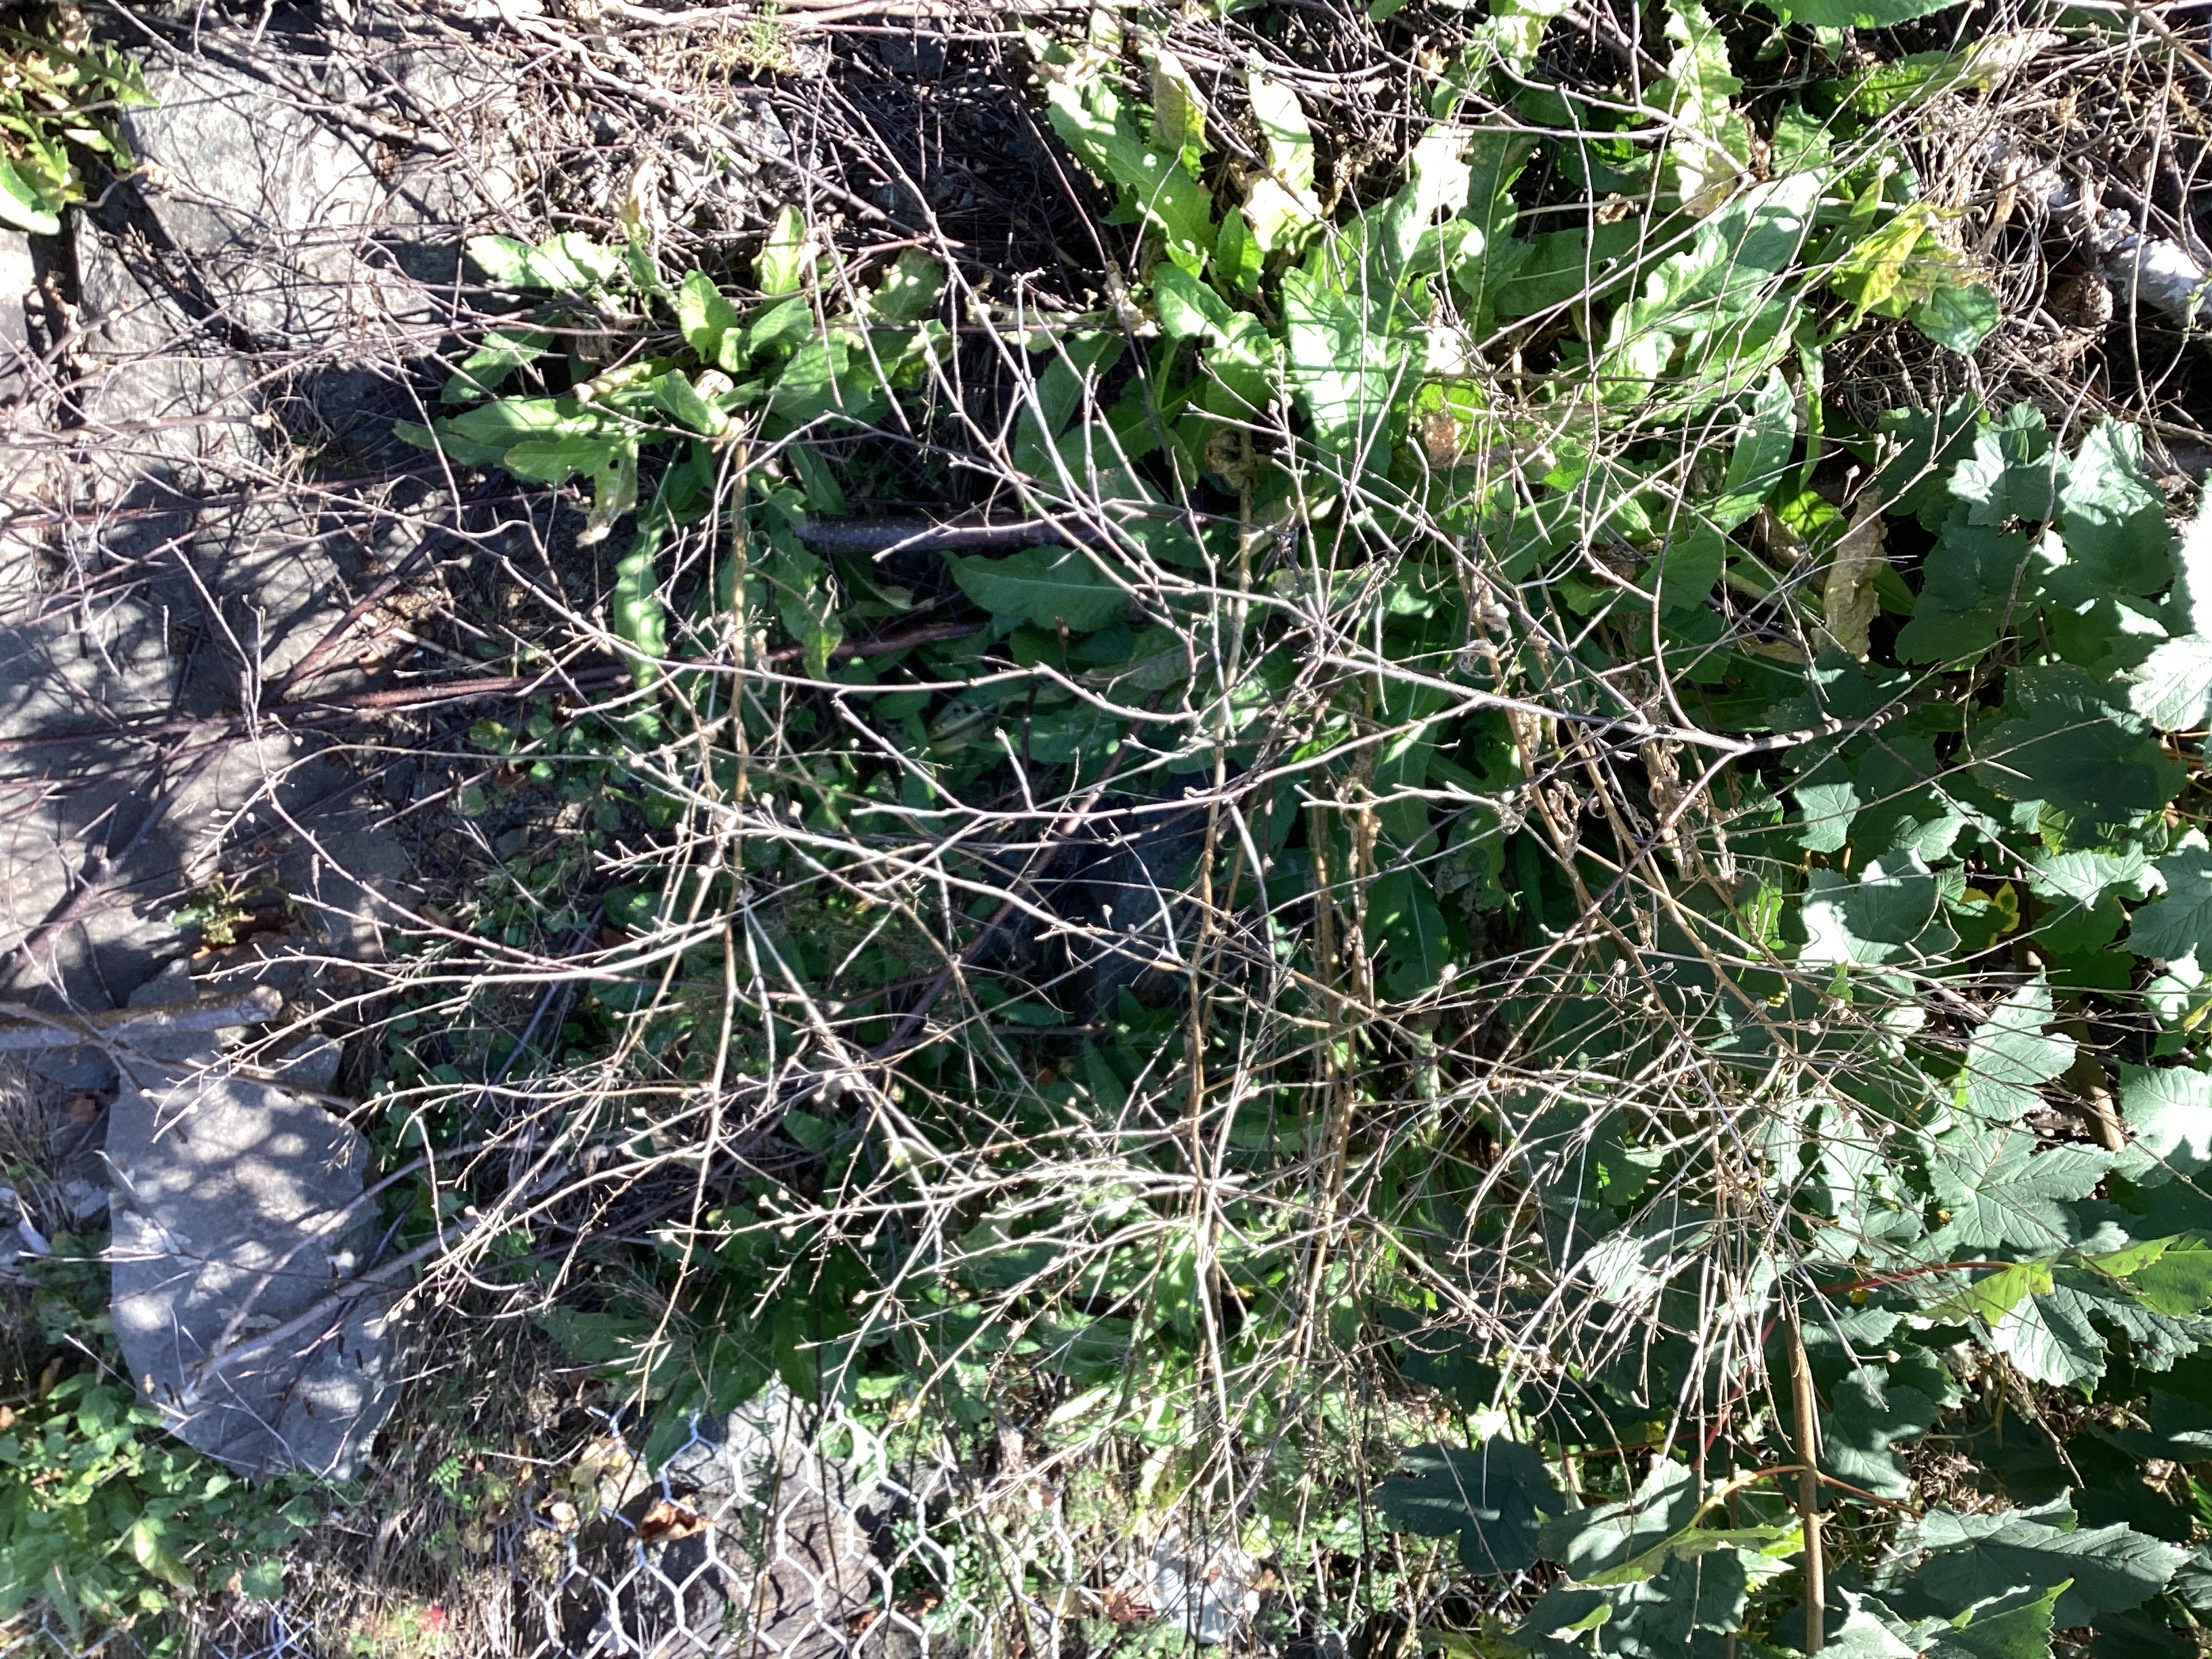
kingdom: Plantae
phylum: Tracheophyta
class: Magnoliopsida
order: Brassicales
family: Brassicaceae
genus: Bunias
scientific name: Bunias orientalis
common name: russekål
